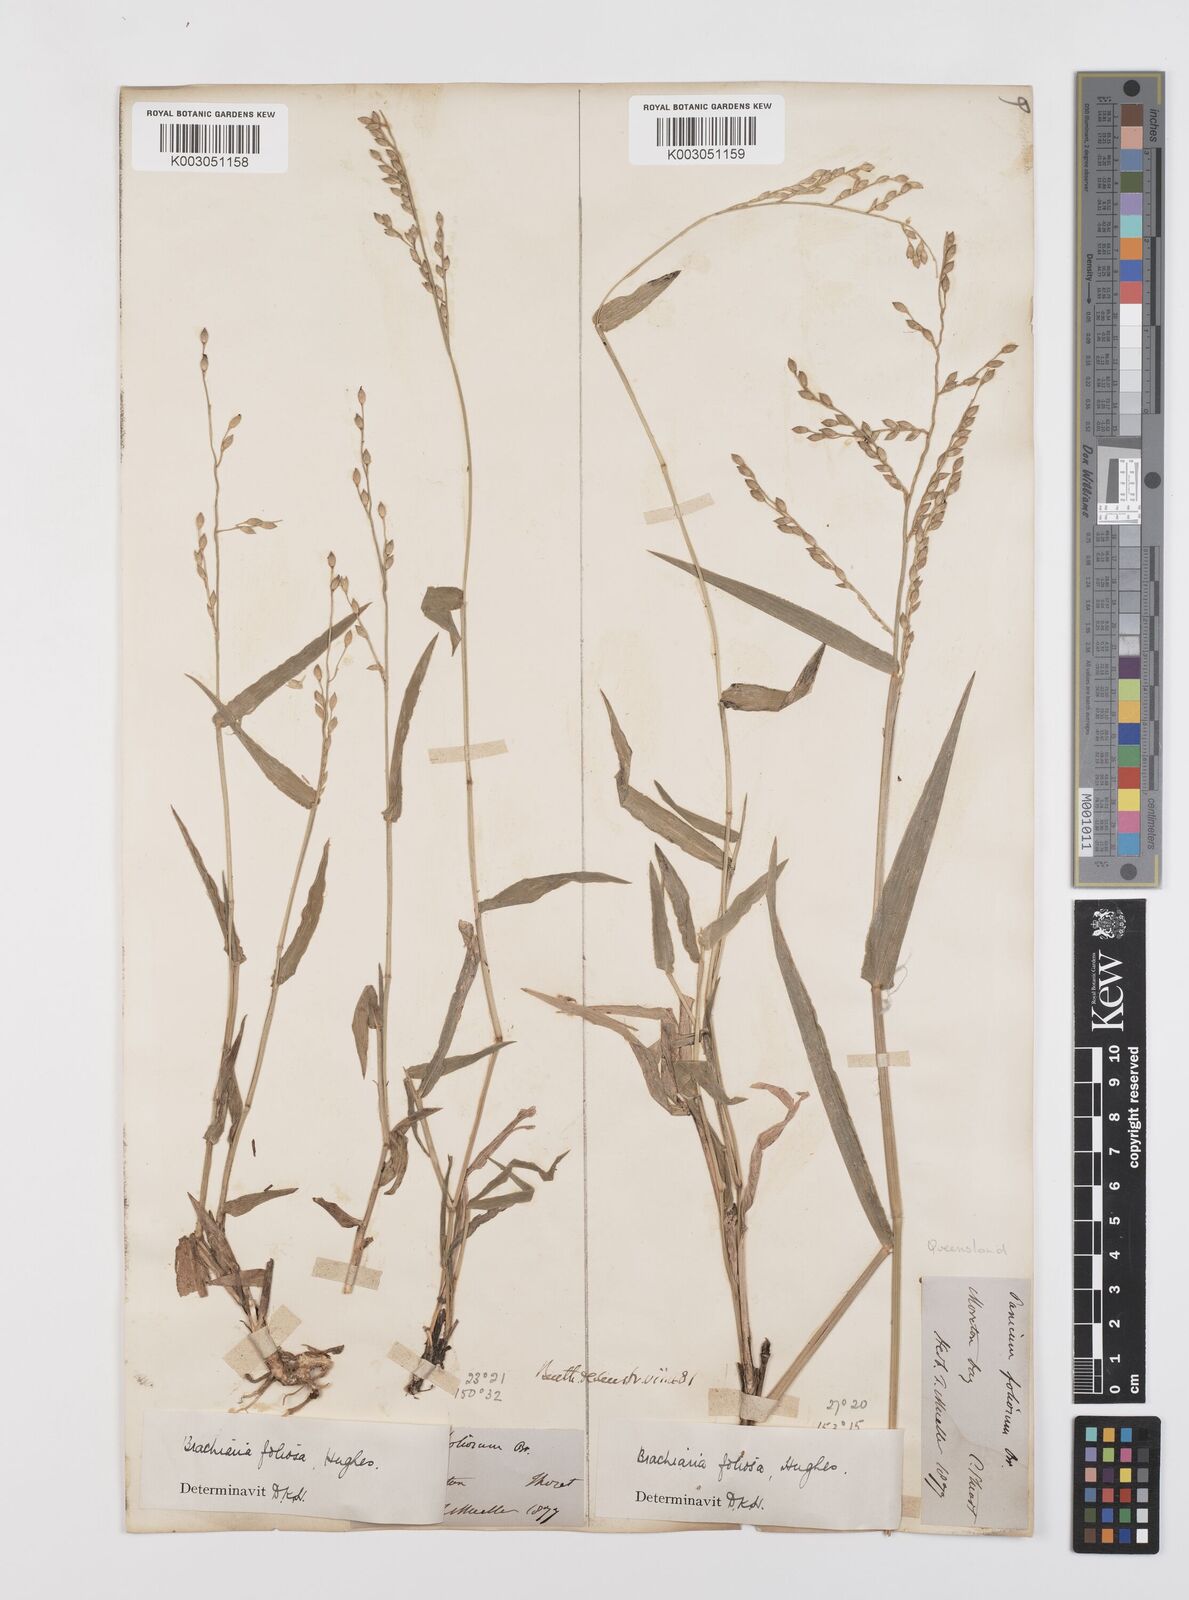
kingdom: Plantae
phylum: Tracheophyta
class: Liliopsida
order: Poales
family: Poaceae
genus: Urochloa
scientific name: Urochloa foliosa
